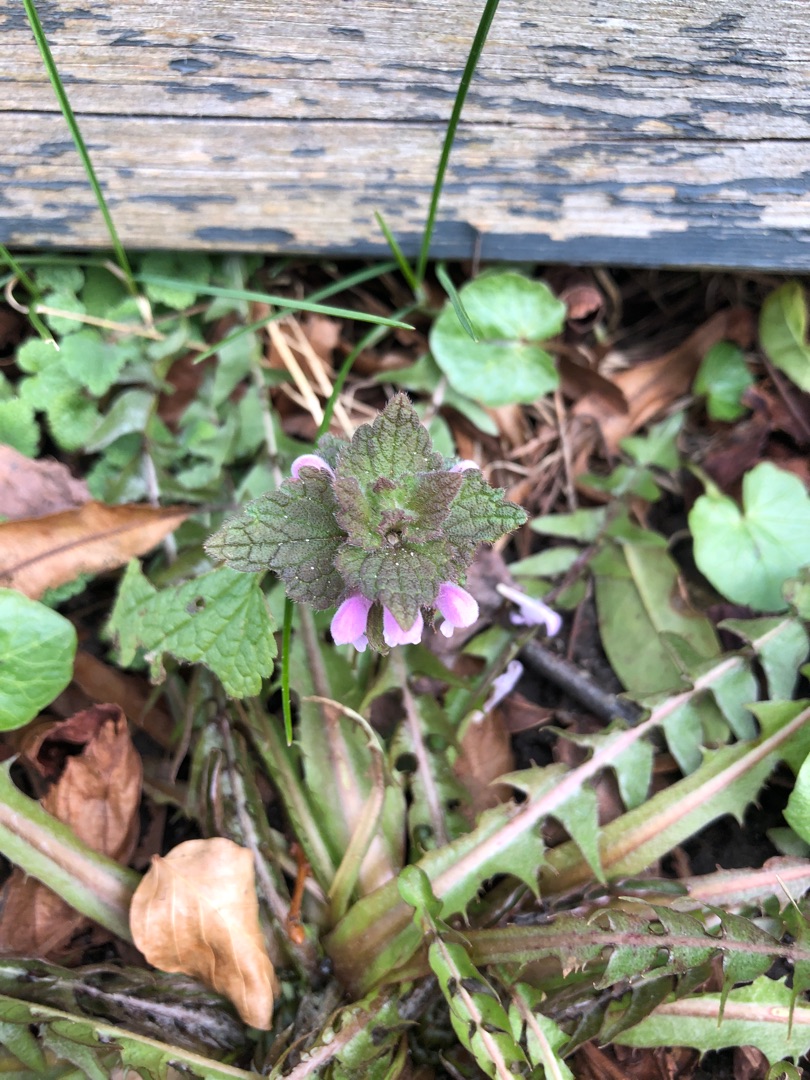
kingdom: Plantae
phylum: Tracheophyta
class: Magnoliopsida
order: Lamiales
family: Lamiaceae
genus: Lamium
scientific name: Lamium purpureum
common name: Rød tvetand
